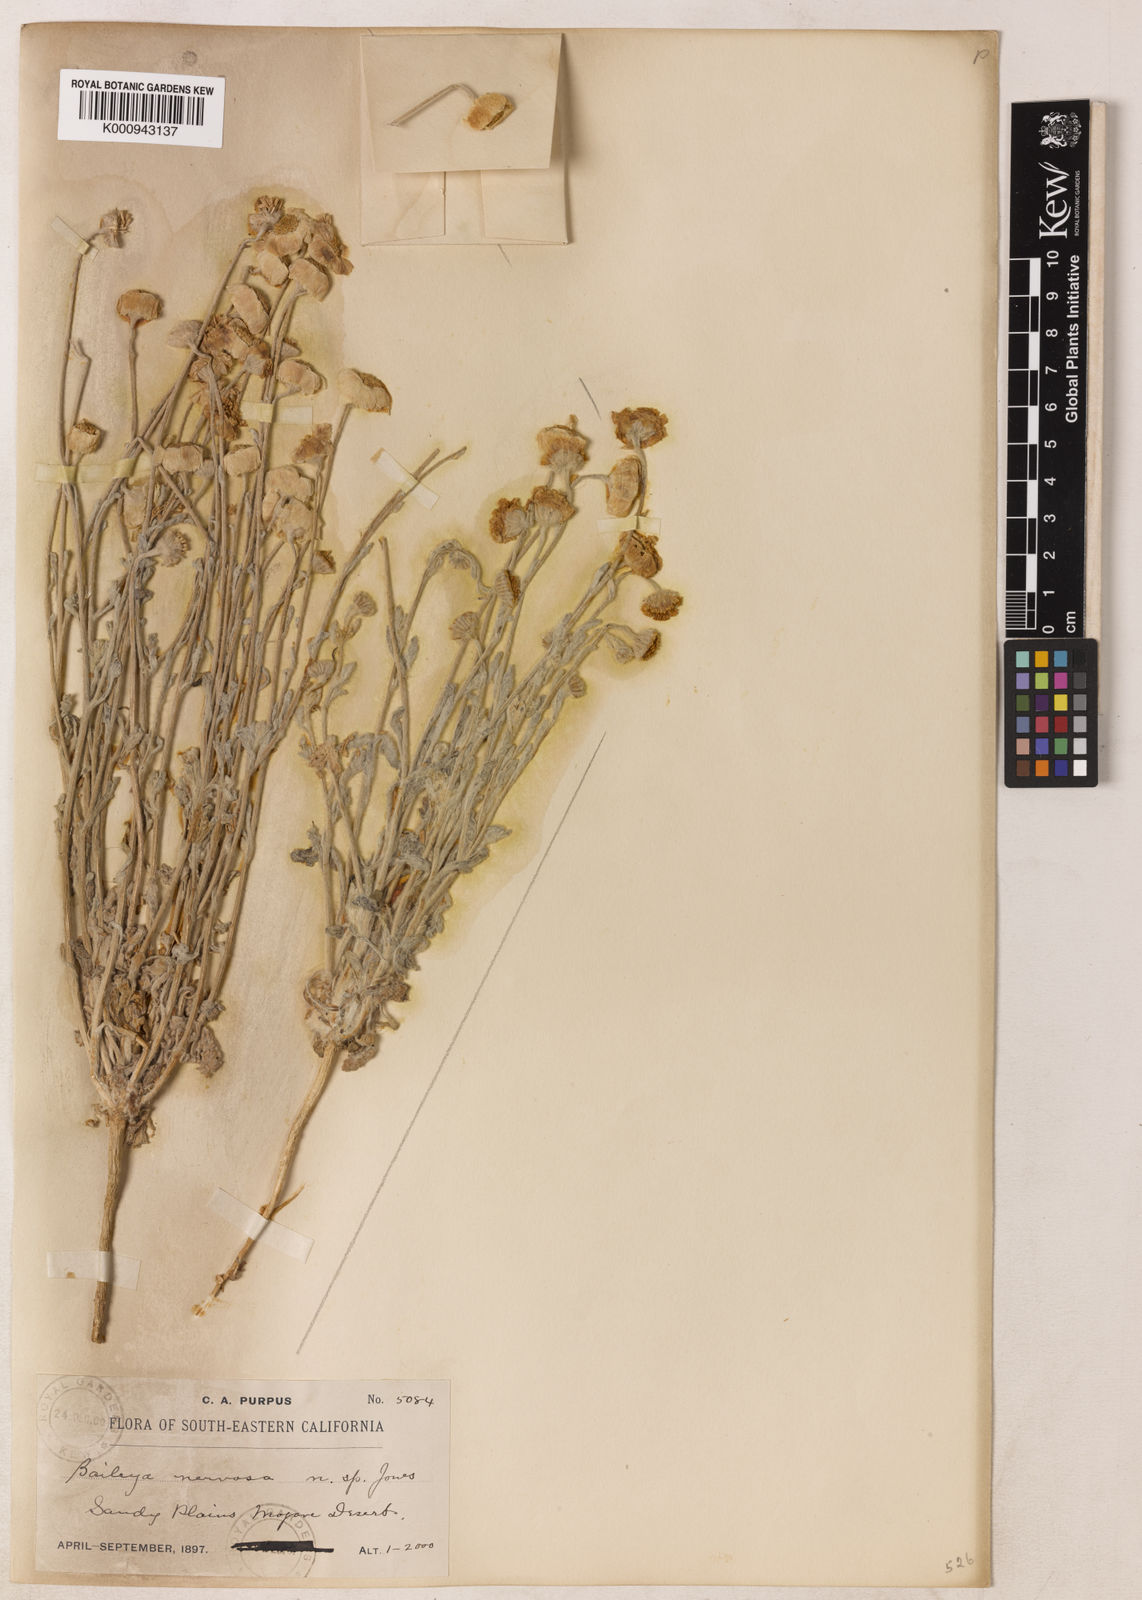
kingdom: Plantae
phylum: Tracheophyta
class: Magnoliopsida
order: Asterales
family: Asteraceae
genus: Baileya
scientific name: Baileya
